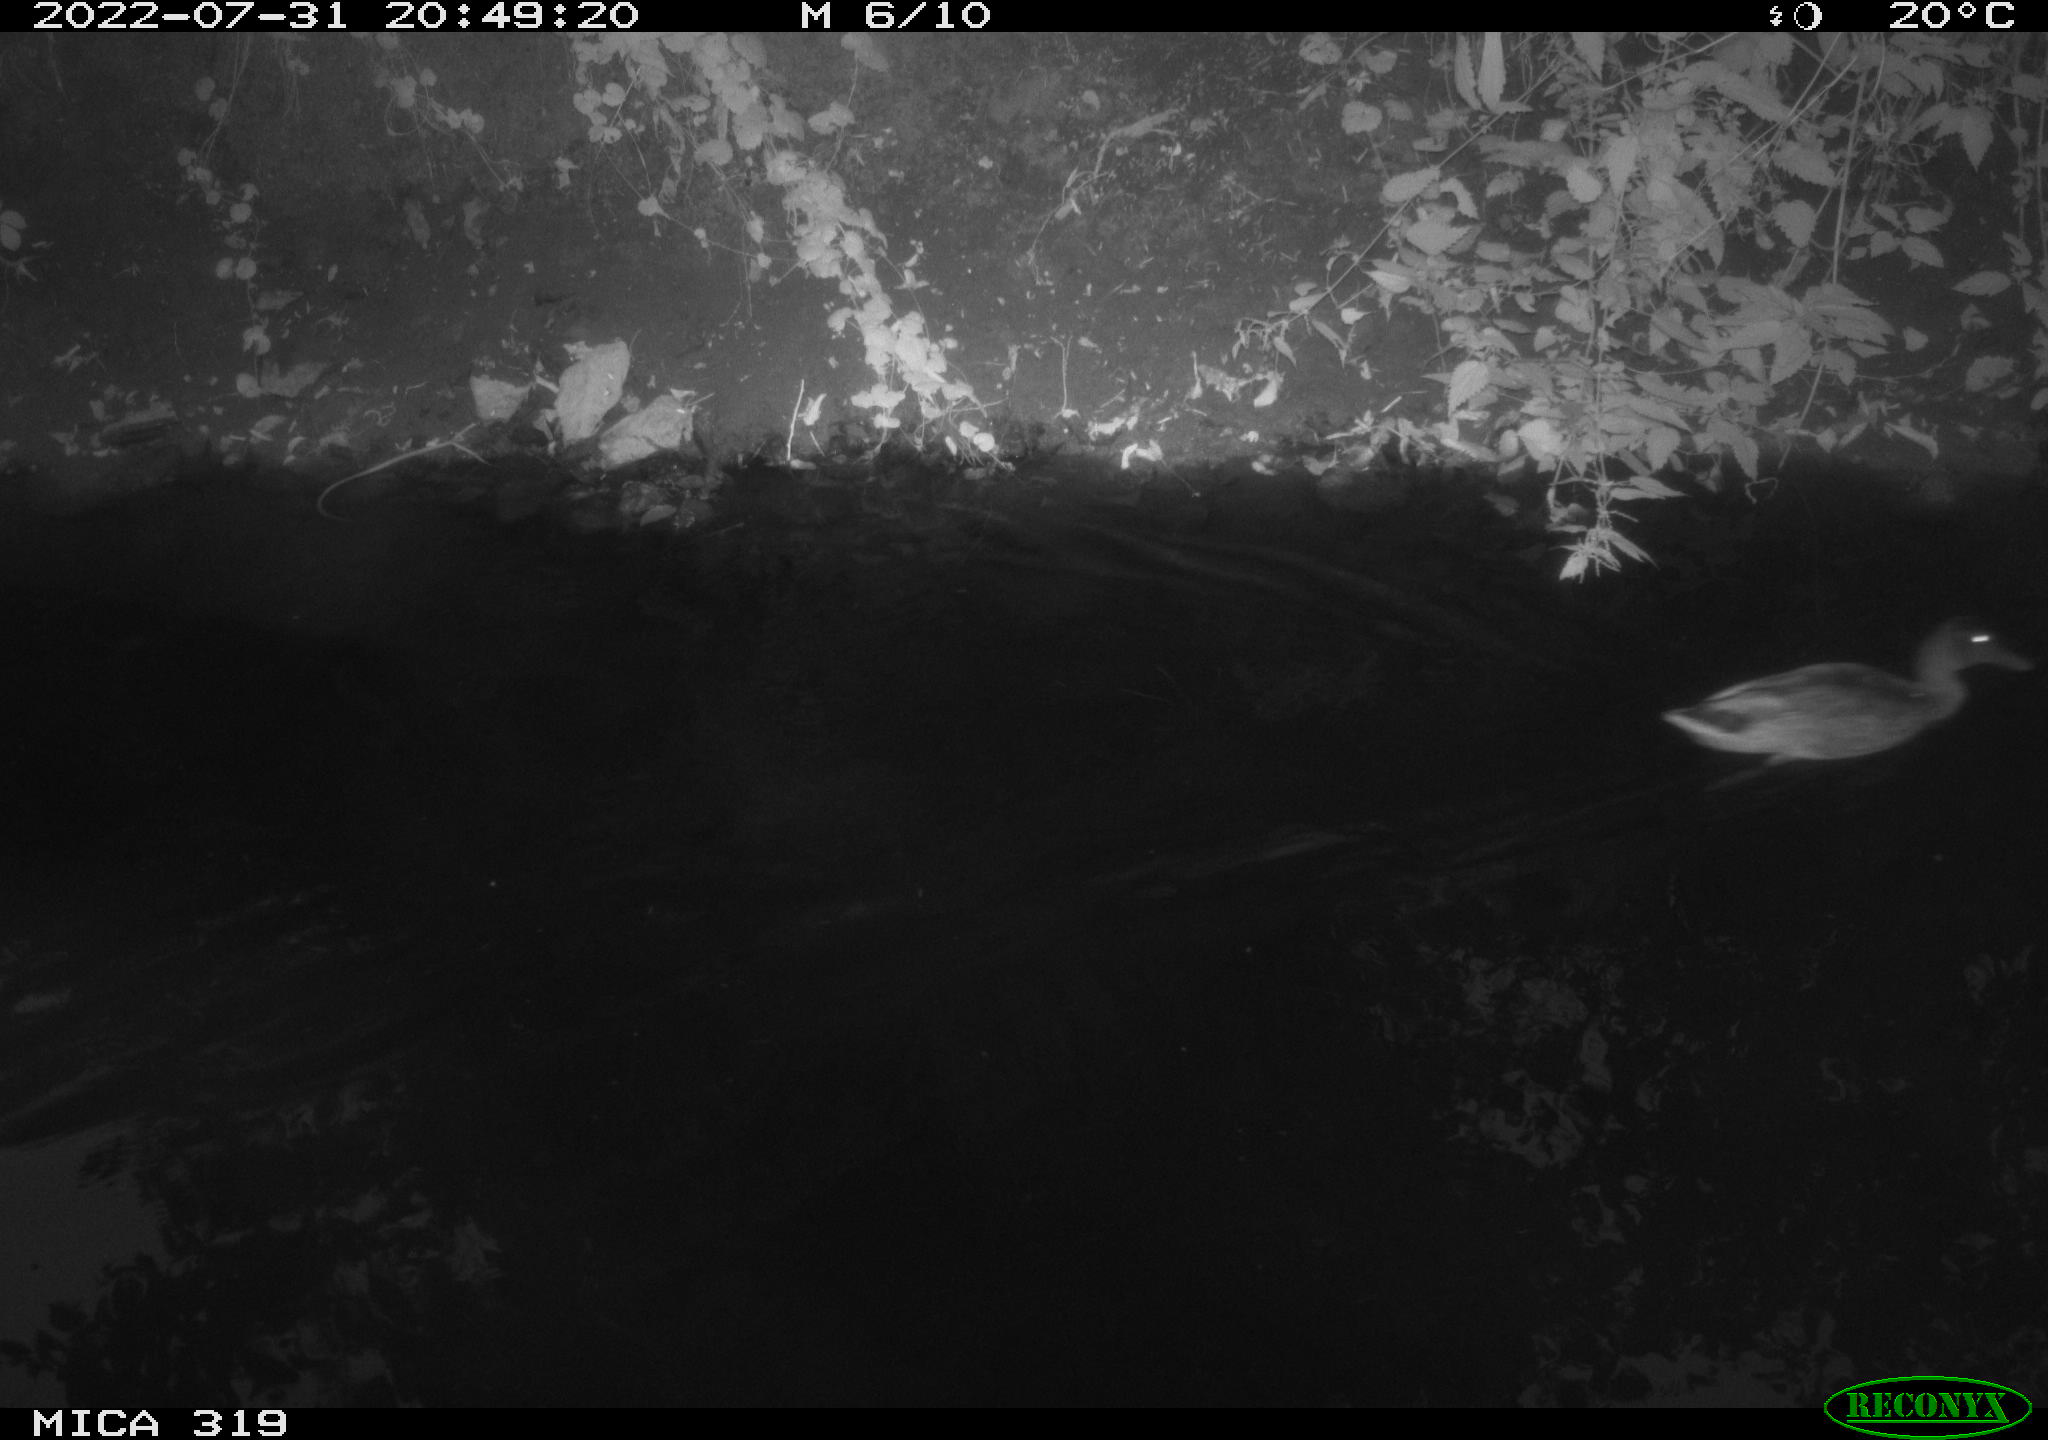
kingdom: Animalia
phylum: Chordata
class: Aves
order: Anseriformes
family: Anatidae
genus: Anas
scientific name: Anas
